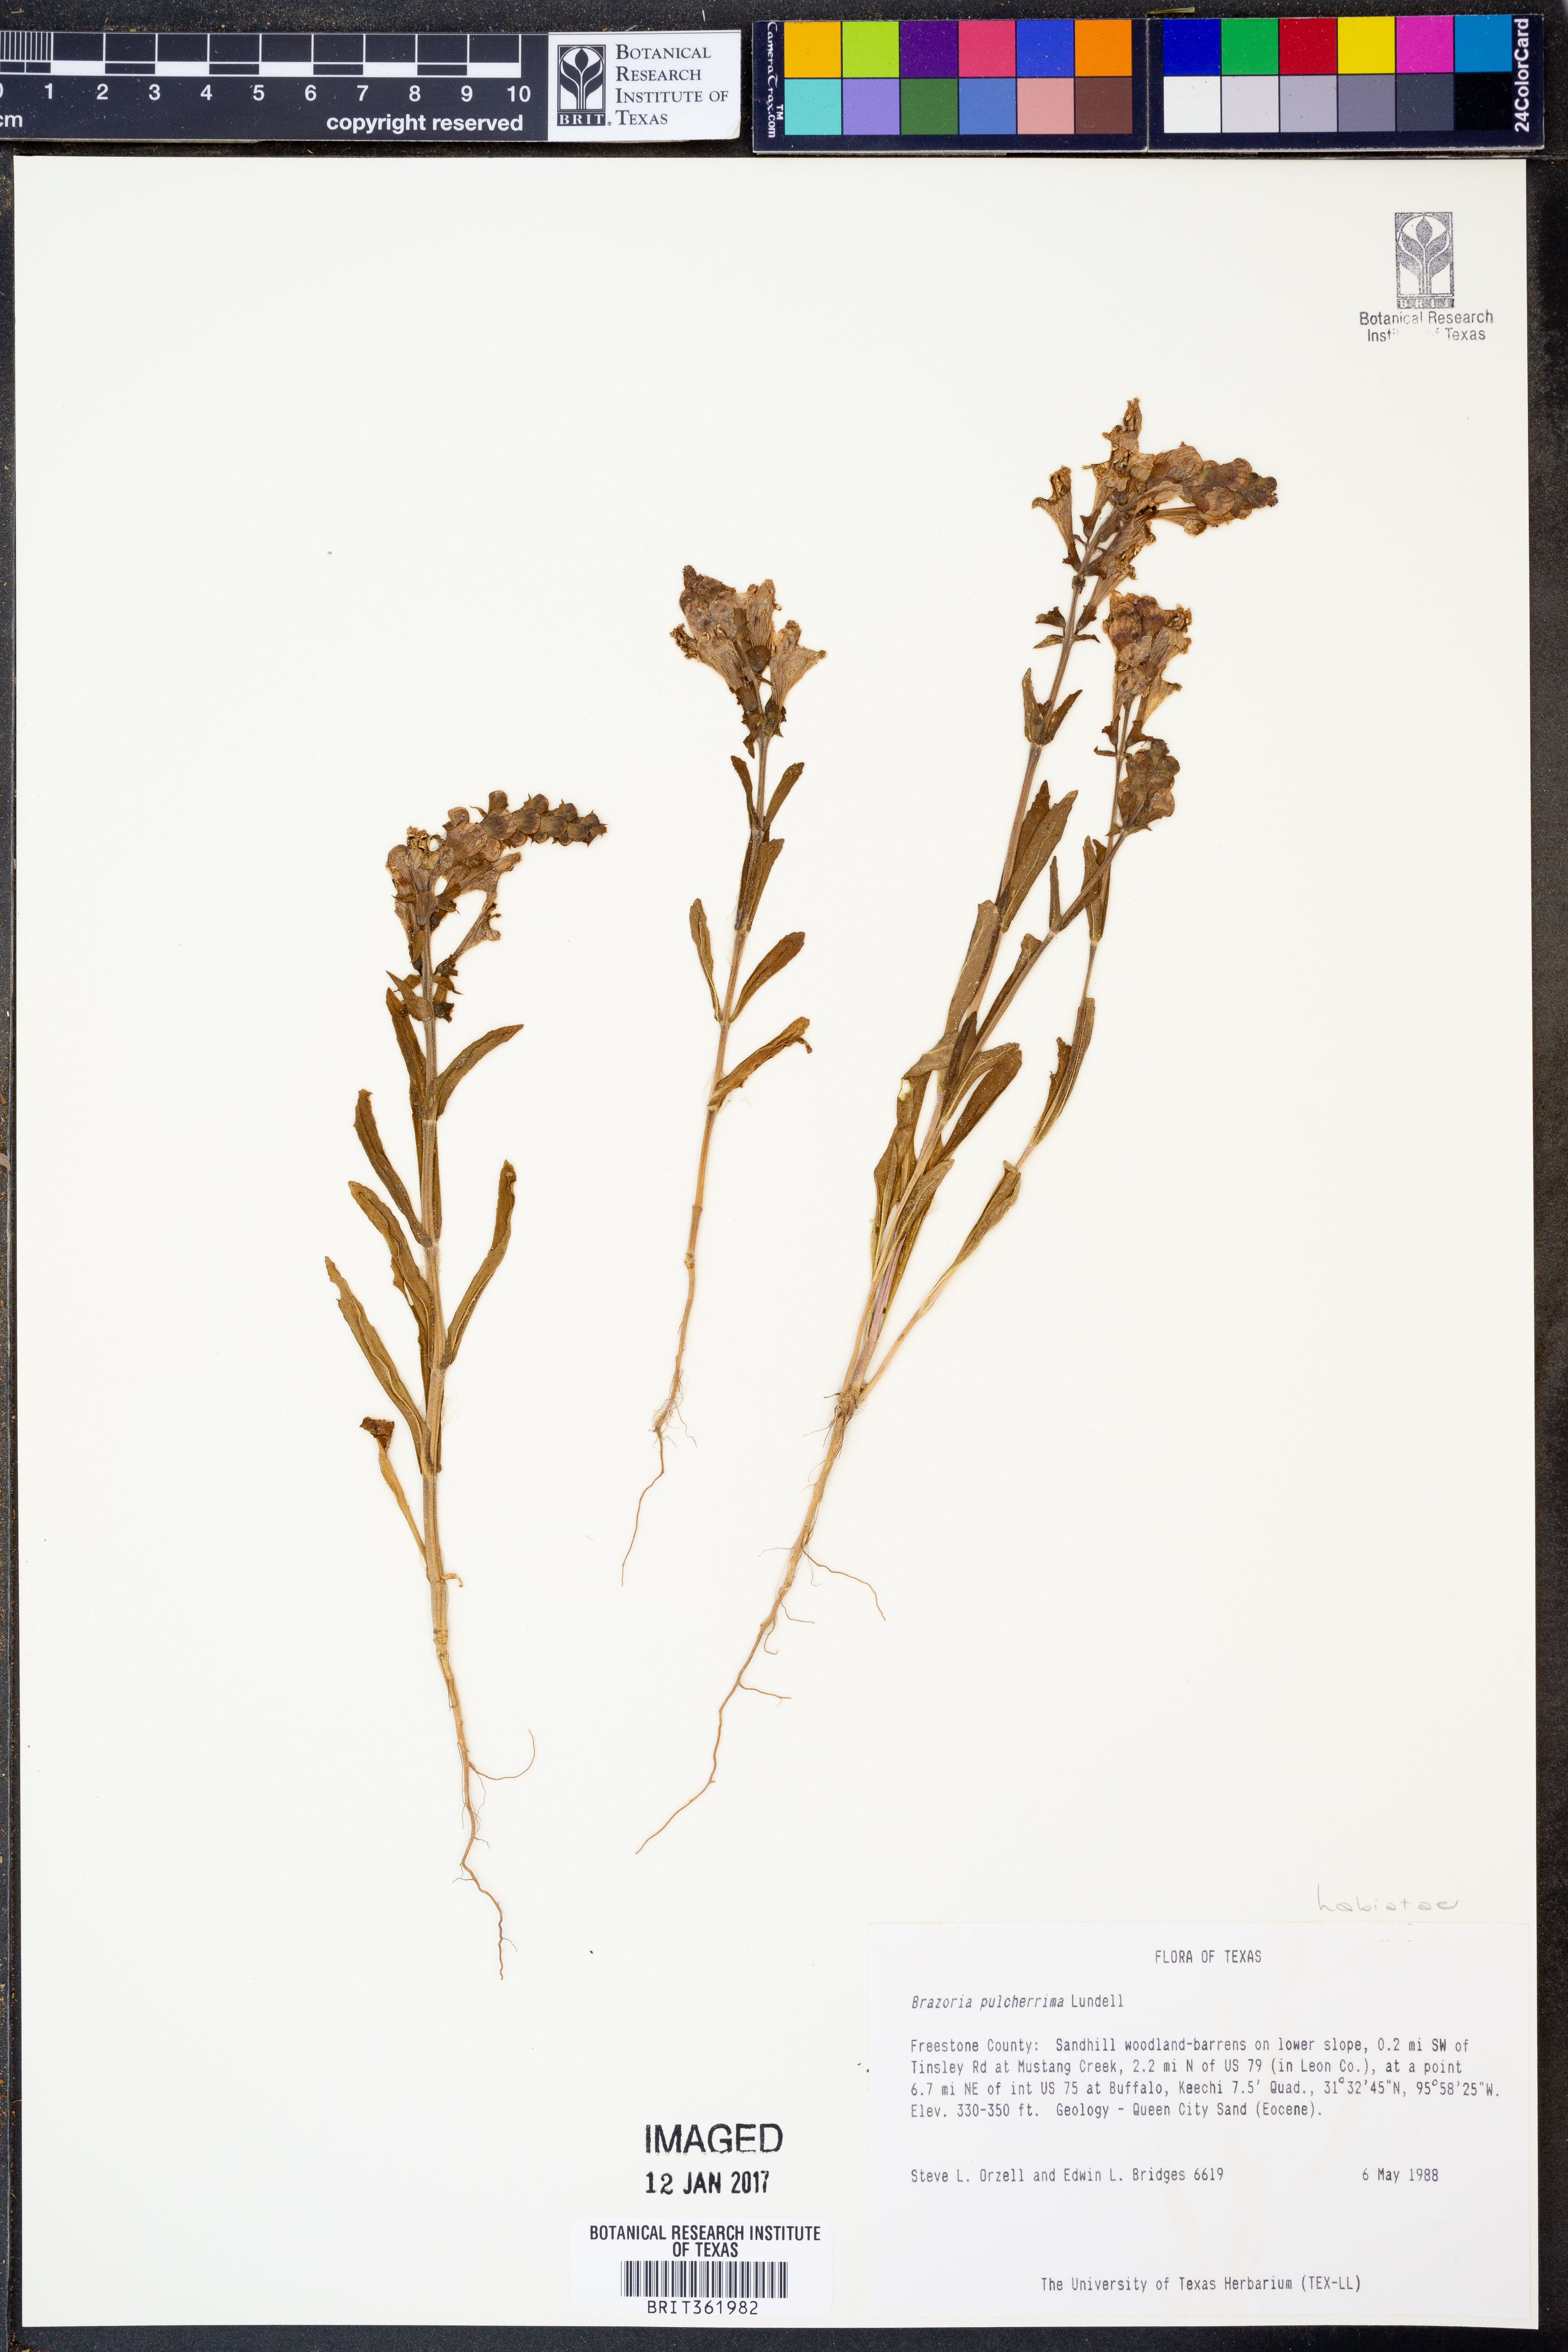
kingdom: Plantae
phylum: Tracheophyta
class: Magnoliopsida
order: Lamiales
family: Lamiaceae
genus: Brazoria
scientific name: Brazoria truncata
